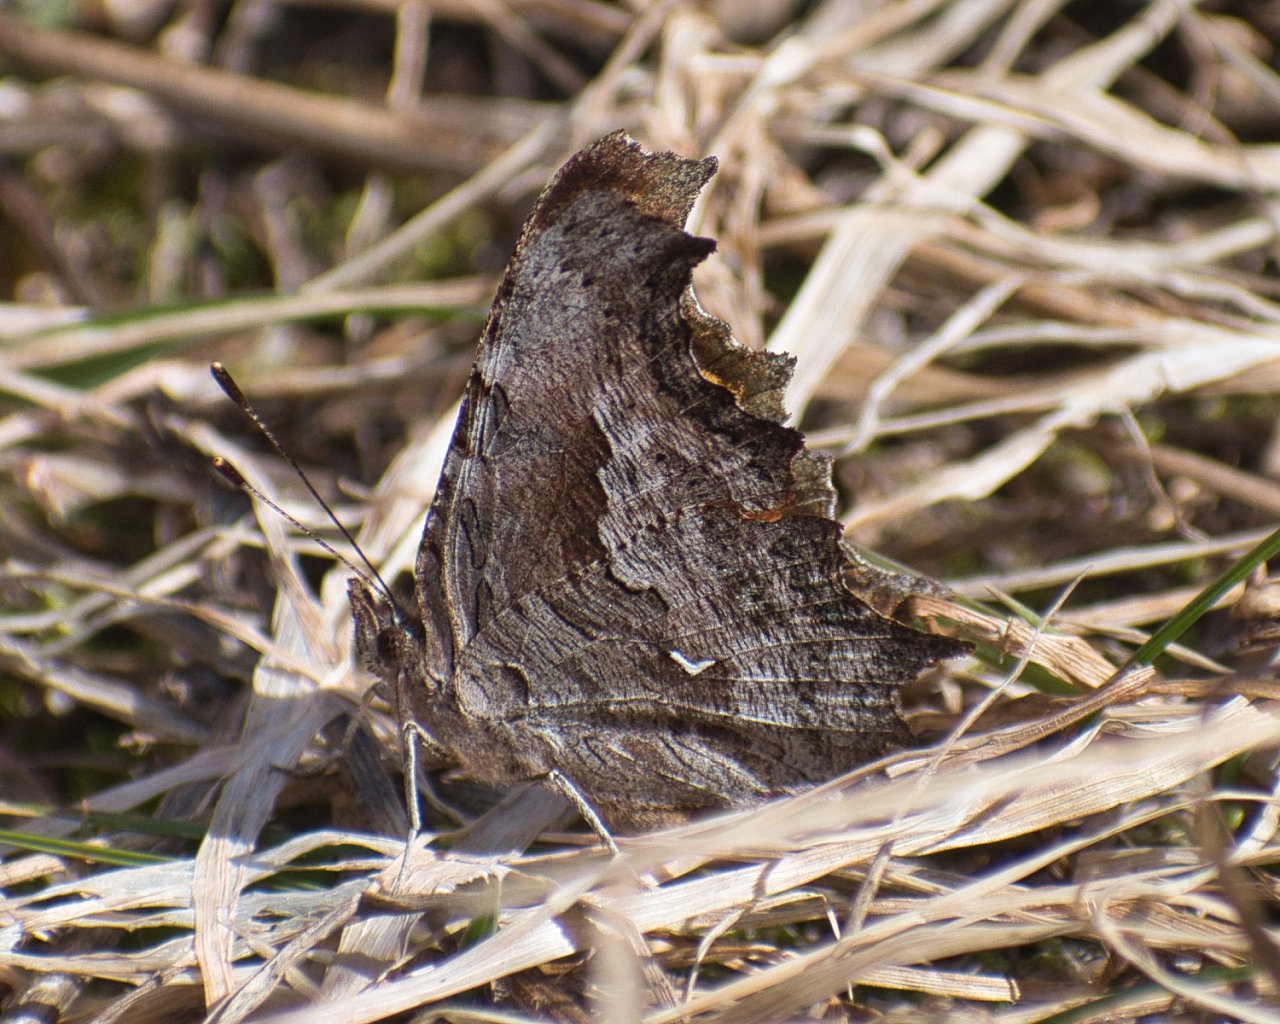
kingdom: Animalia
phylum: Arthropoda
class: Insecta
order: Lepidoptera
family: Nymphalidae
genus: Polygonia
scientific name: Polygonia gracilis
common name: Hoary Comma
